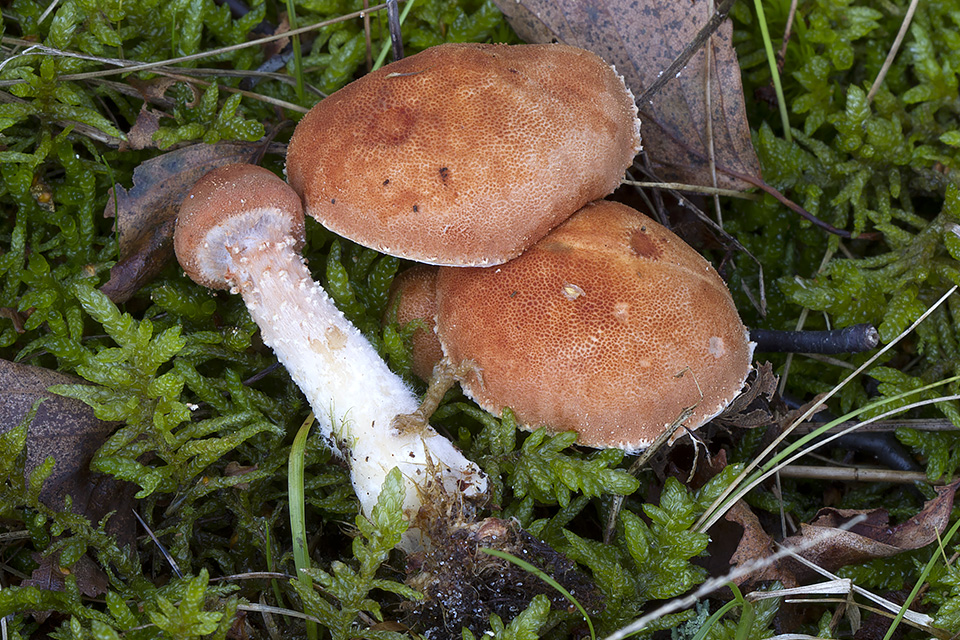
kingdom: Fungi
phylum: Basidiomycota
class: Agaricomycetes
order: Agaricales
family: Agaricaceae
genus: Cystodermella
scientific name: Cystodermella cinnabarina
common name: cinnober-grynhat
